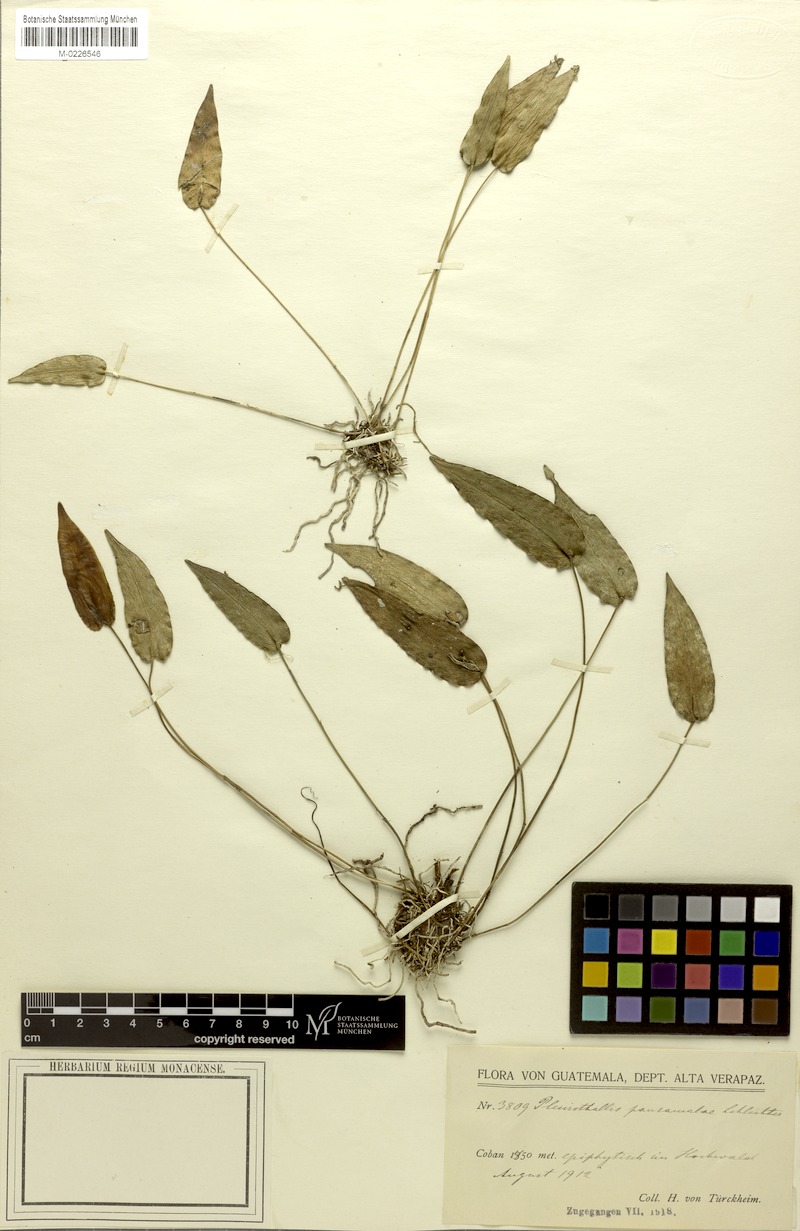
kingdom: Plantae
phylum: Tracheophyta
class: Liliopsida
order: Asparagales
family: Orchidaceae
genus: Pleurothallis
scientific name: Pleurothallis pansamalae
